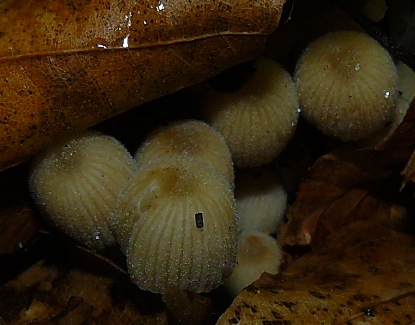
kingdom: Fungi
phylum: Basidiomycota
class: Agaricomycetes
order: Agaricales
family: Psathyrellaceae
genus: Coprinellus
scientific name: Coprinellus disseminatus
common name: bredsået blækhat
